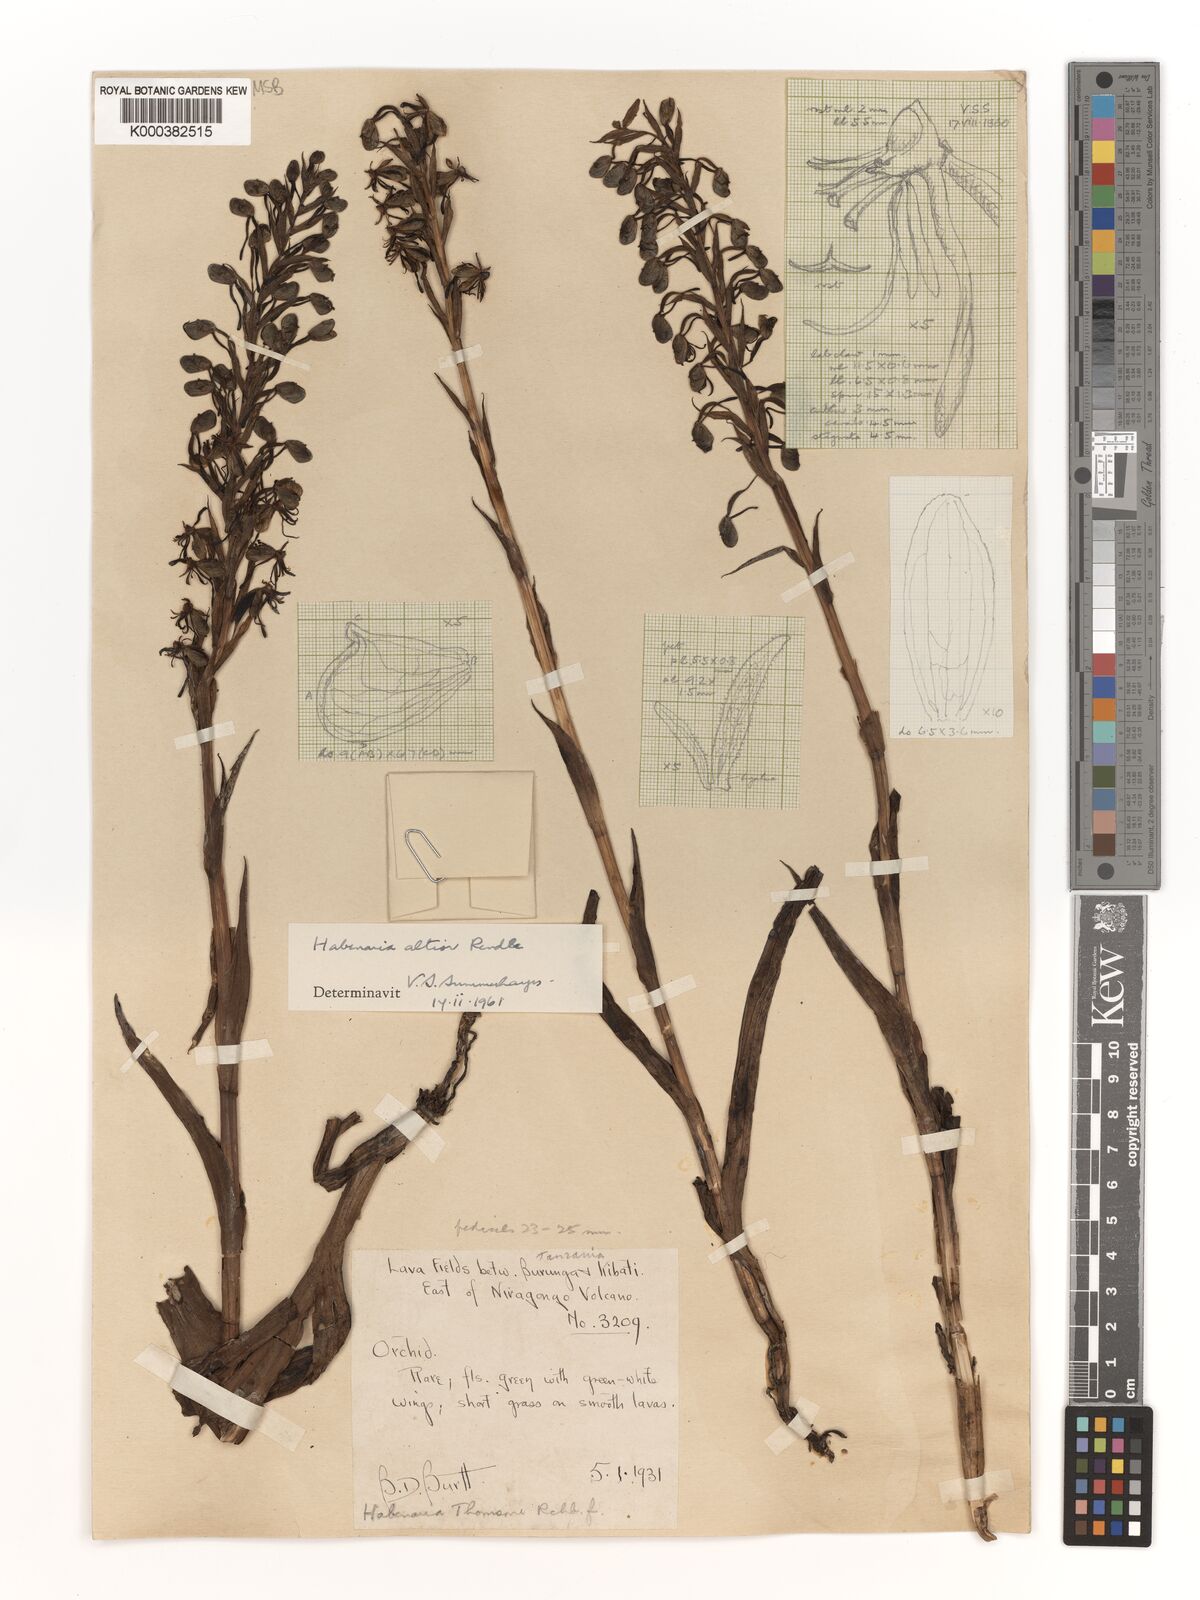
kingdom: Plantae
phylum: Tracheophyta
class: Liliopsida
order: Asparagales
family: Orchidaceae
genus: Habenaria
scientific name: Habenaria altior
